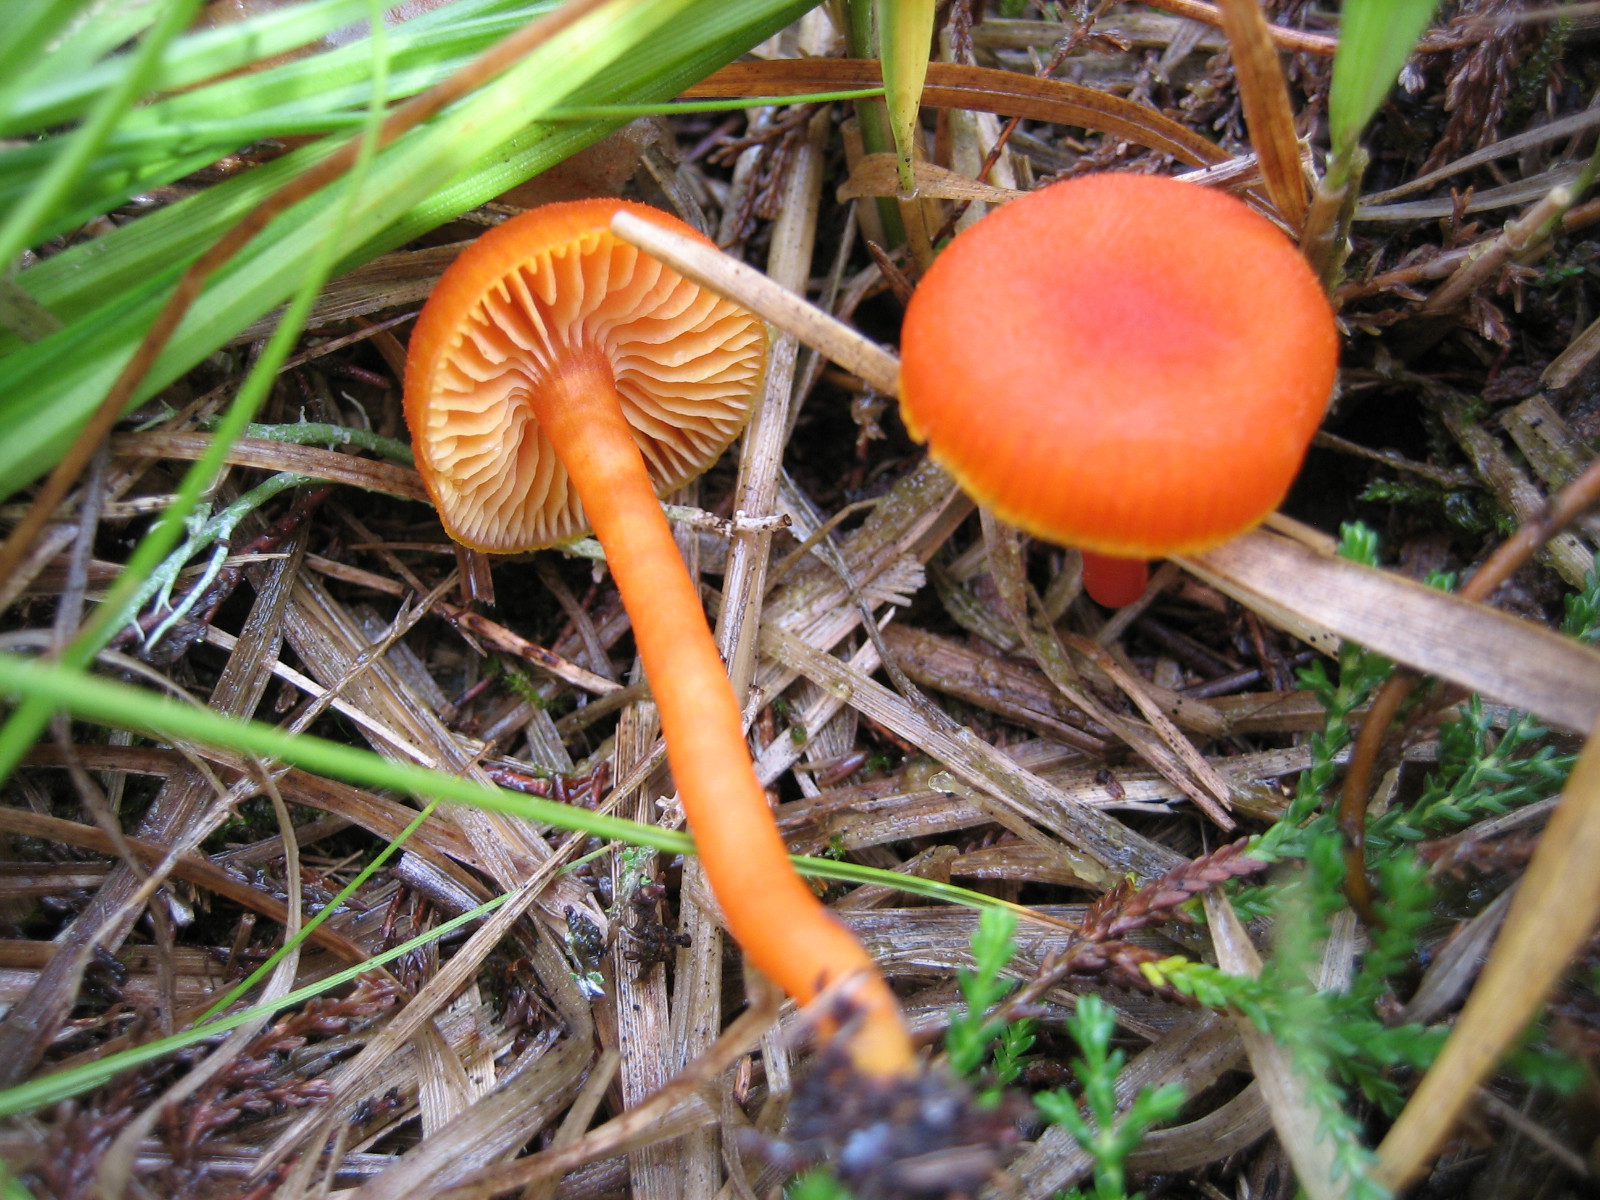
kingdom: Fungi
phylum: Basidiomycota
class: Agaricomycetes
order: Agaricales
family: Hygrophoraceae
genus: Hygrocybe
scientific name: Hygrocybe miniata
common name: mønje-vokshat
